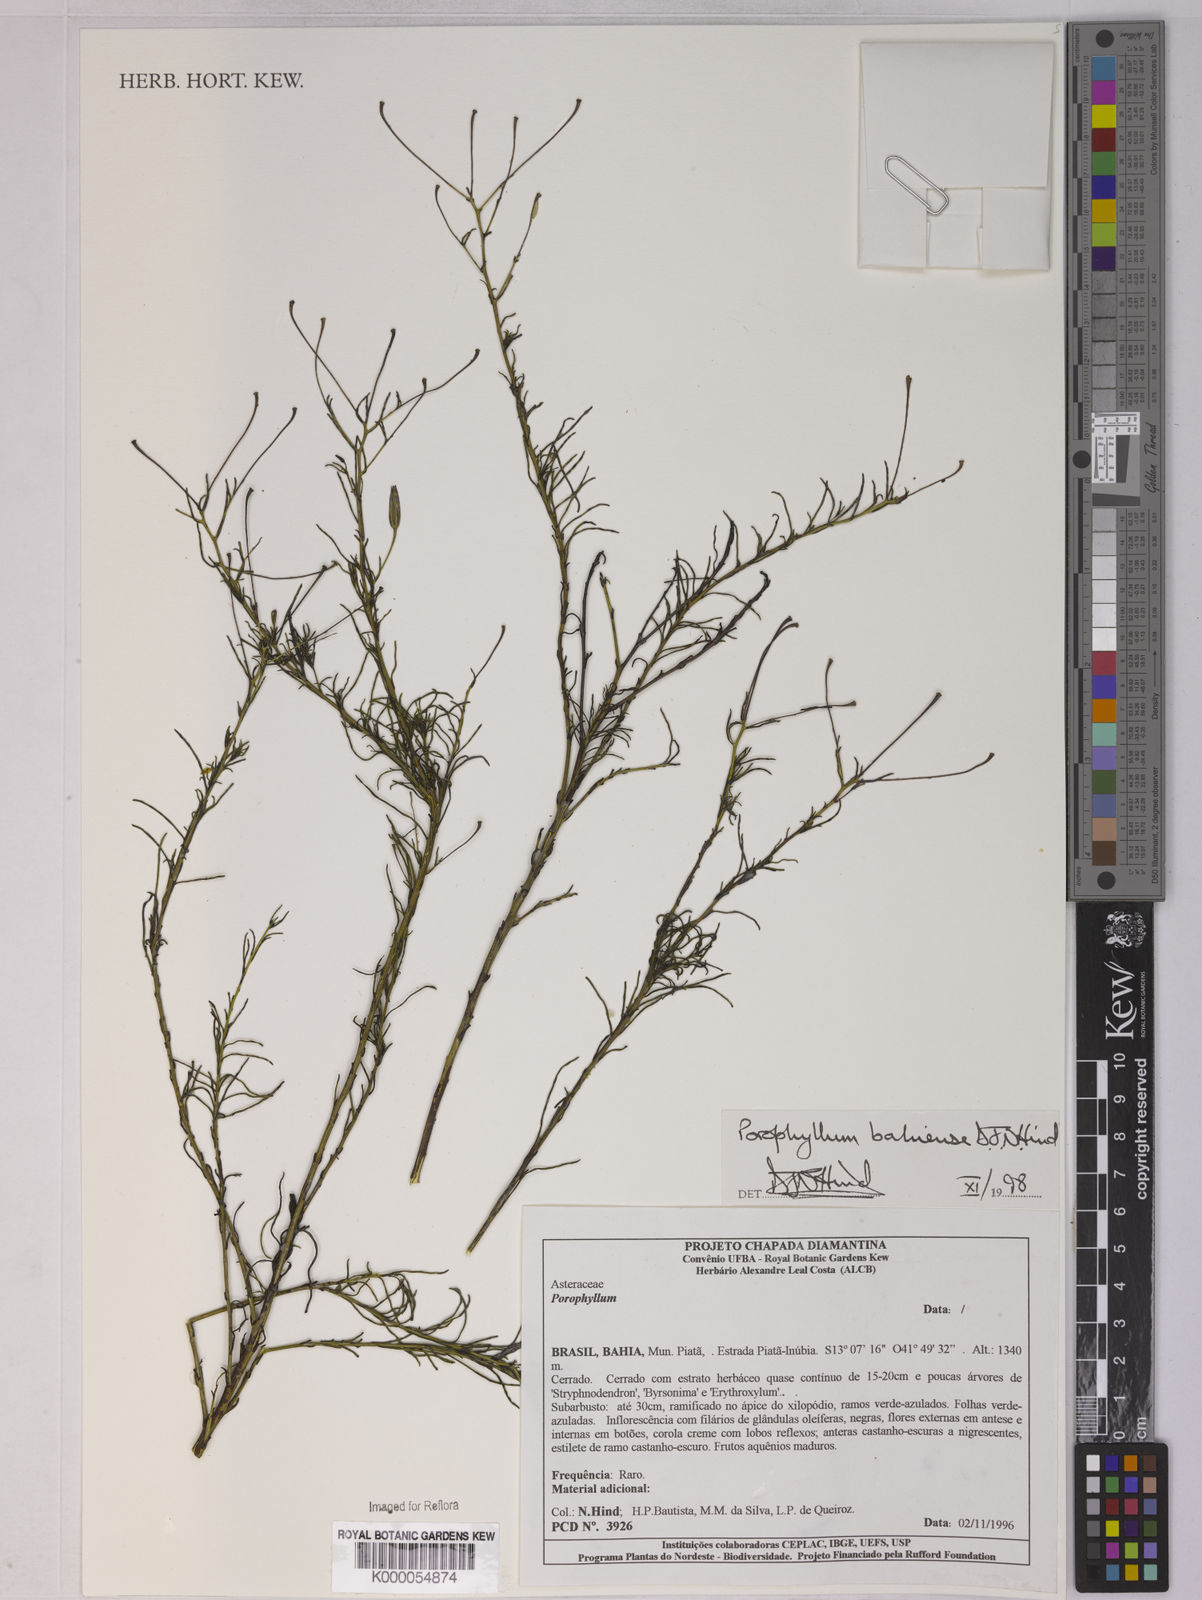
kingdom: Plantae
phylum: Tracheophyta
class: Magnoliopsida
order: Asterales
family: Asteraceae
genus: Porophyllum
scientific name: Porophyllum bahiense
